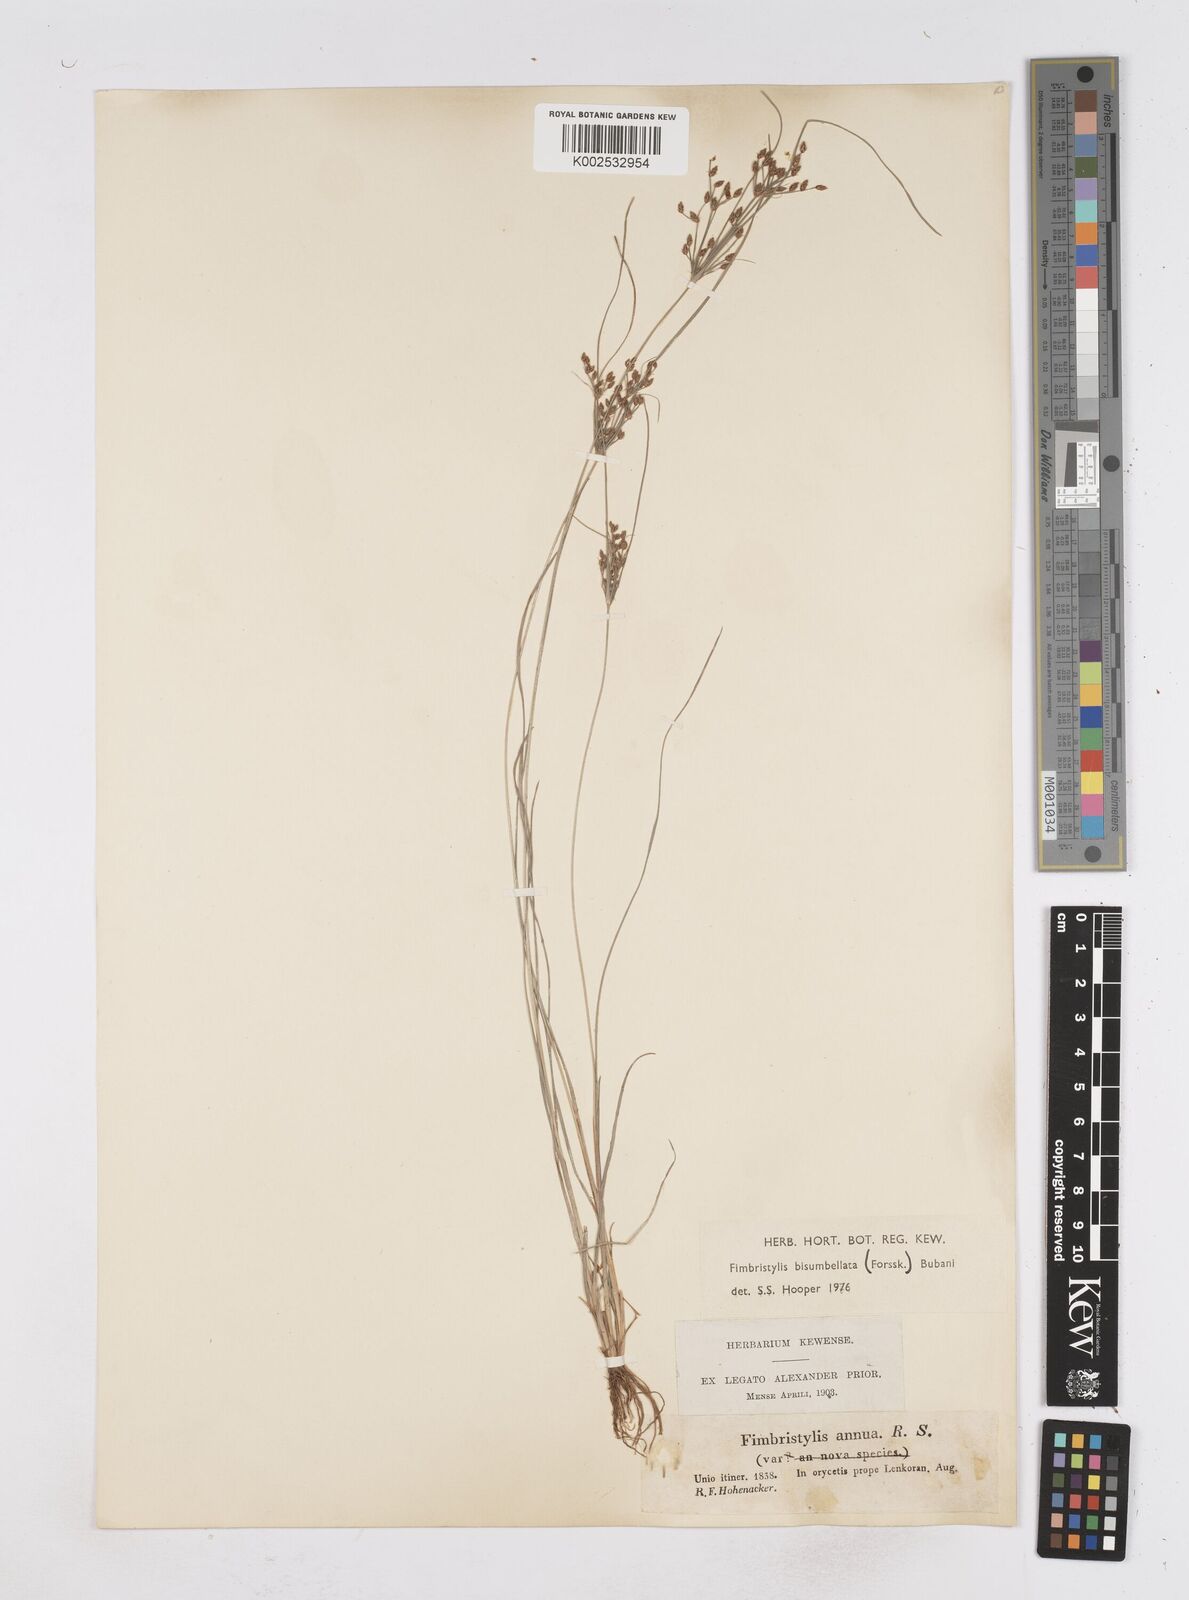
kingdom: Plantae
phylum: Tracheophyta
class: Liliopsida
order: Poales
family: Cyperaceae
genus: Fimbristylis
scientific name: Fimbristylis bisumbellata
